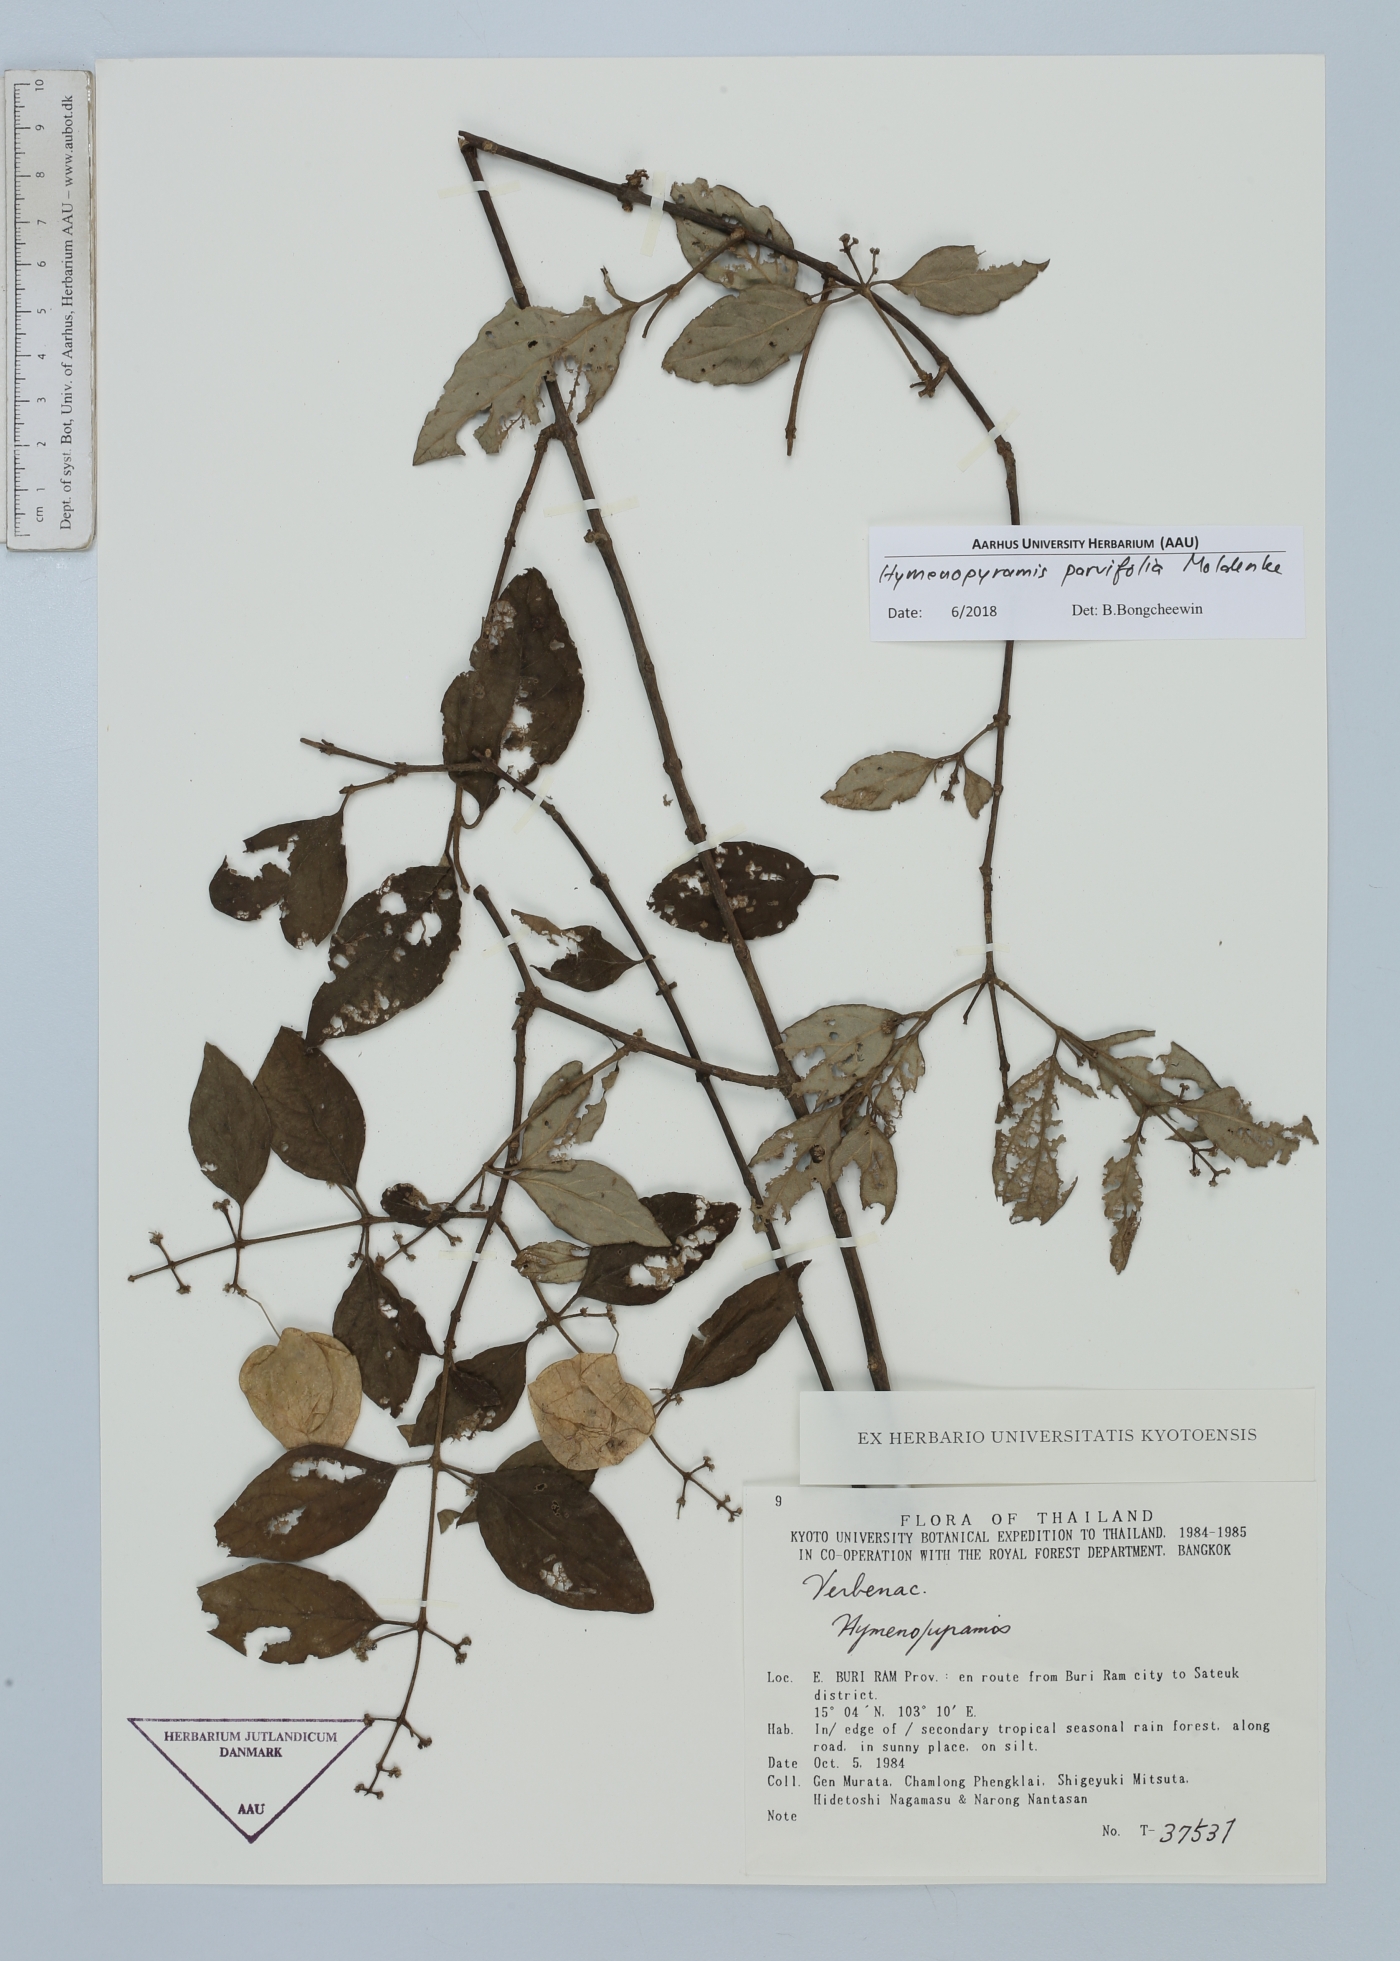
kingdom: Plantae
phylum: Tracheophyta
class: Magnoliopsida
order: Lamiales
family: Lamiaceae
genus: Hymenopyramis
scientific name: Hymenopyramis parvifolia
